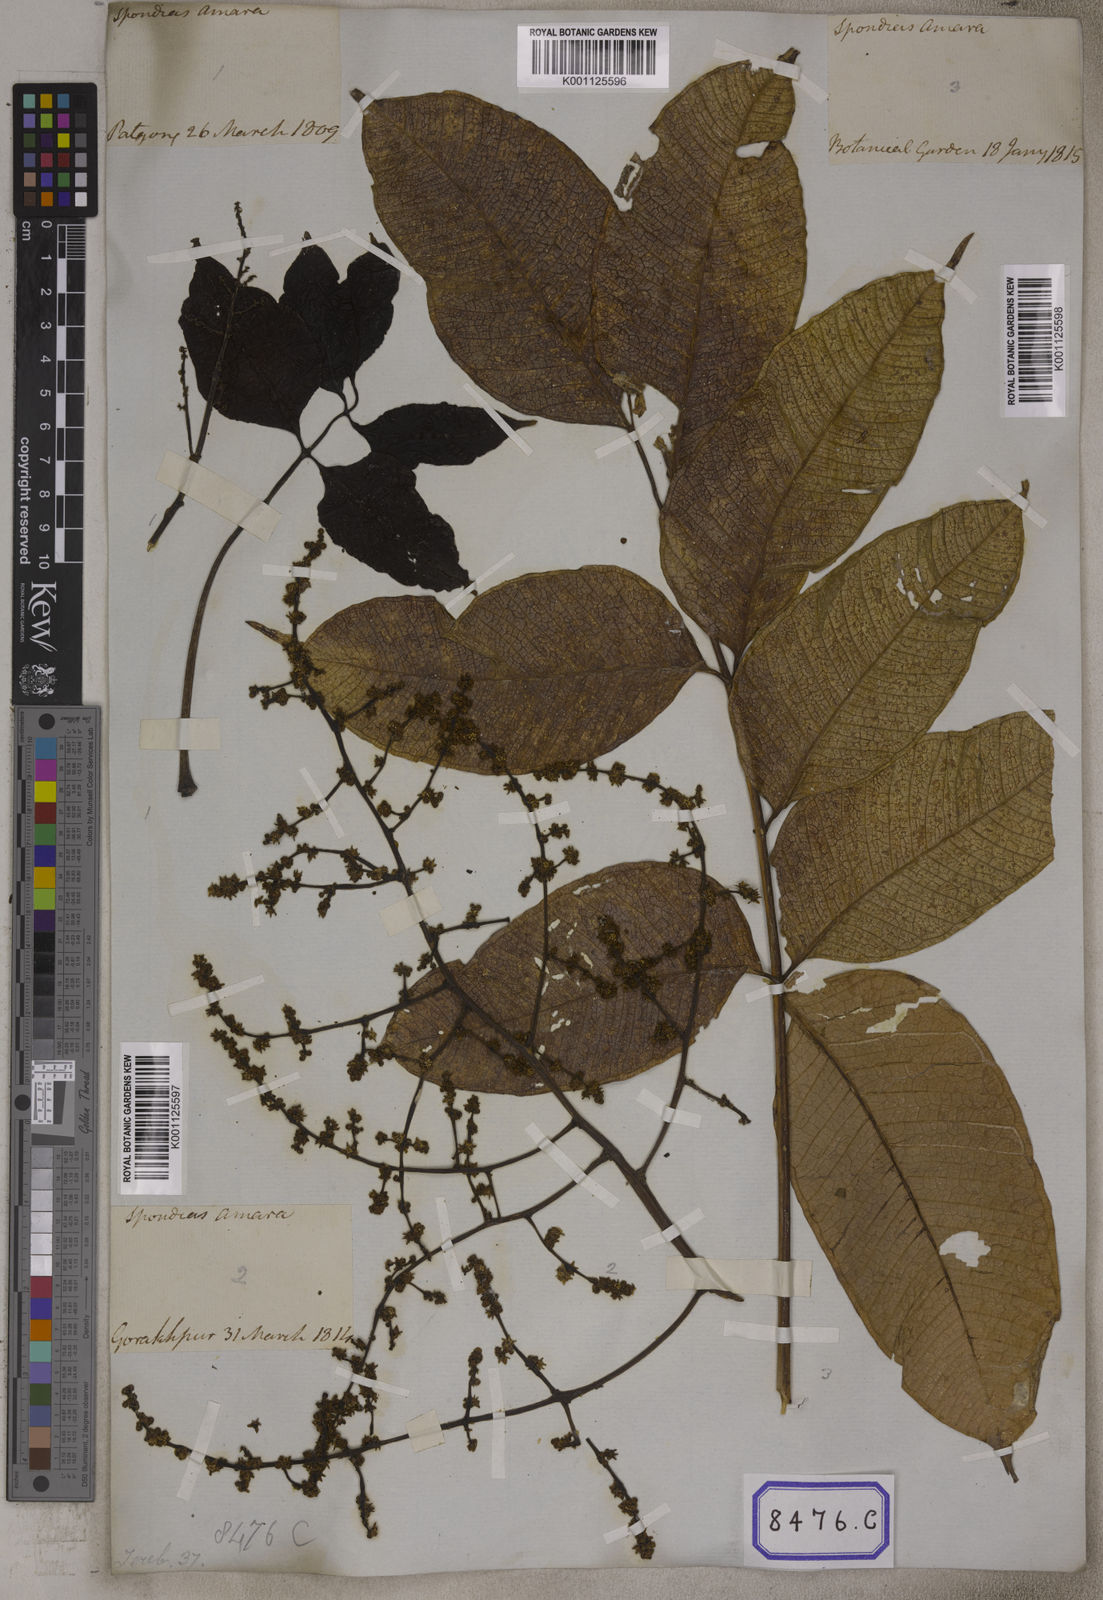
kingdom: Plantae
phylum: Tracheophyta
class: Magnoliopsida
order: Sapindales
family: Anacardiaceae
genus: Spondias
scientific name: Spondias
